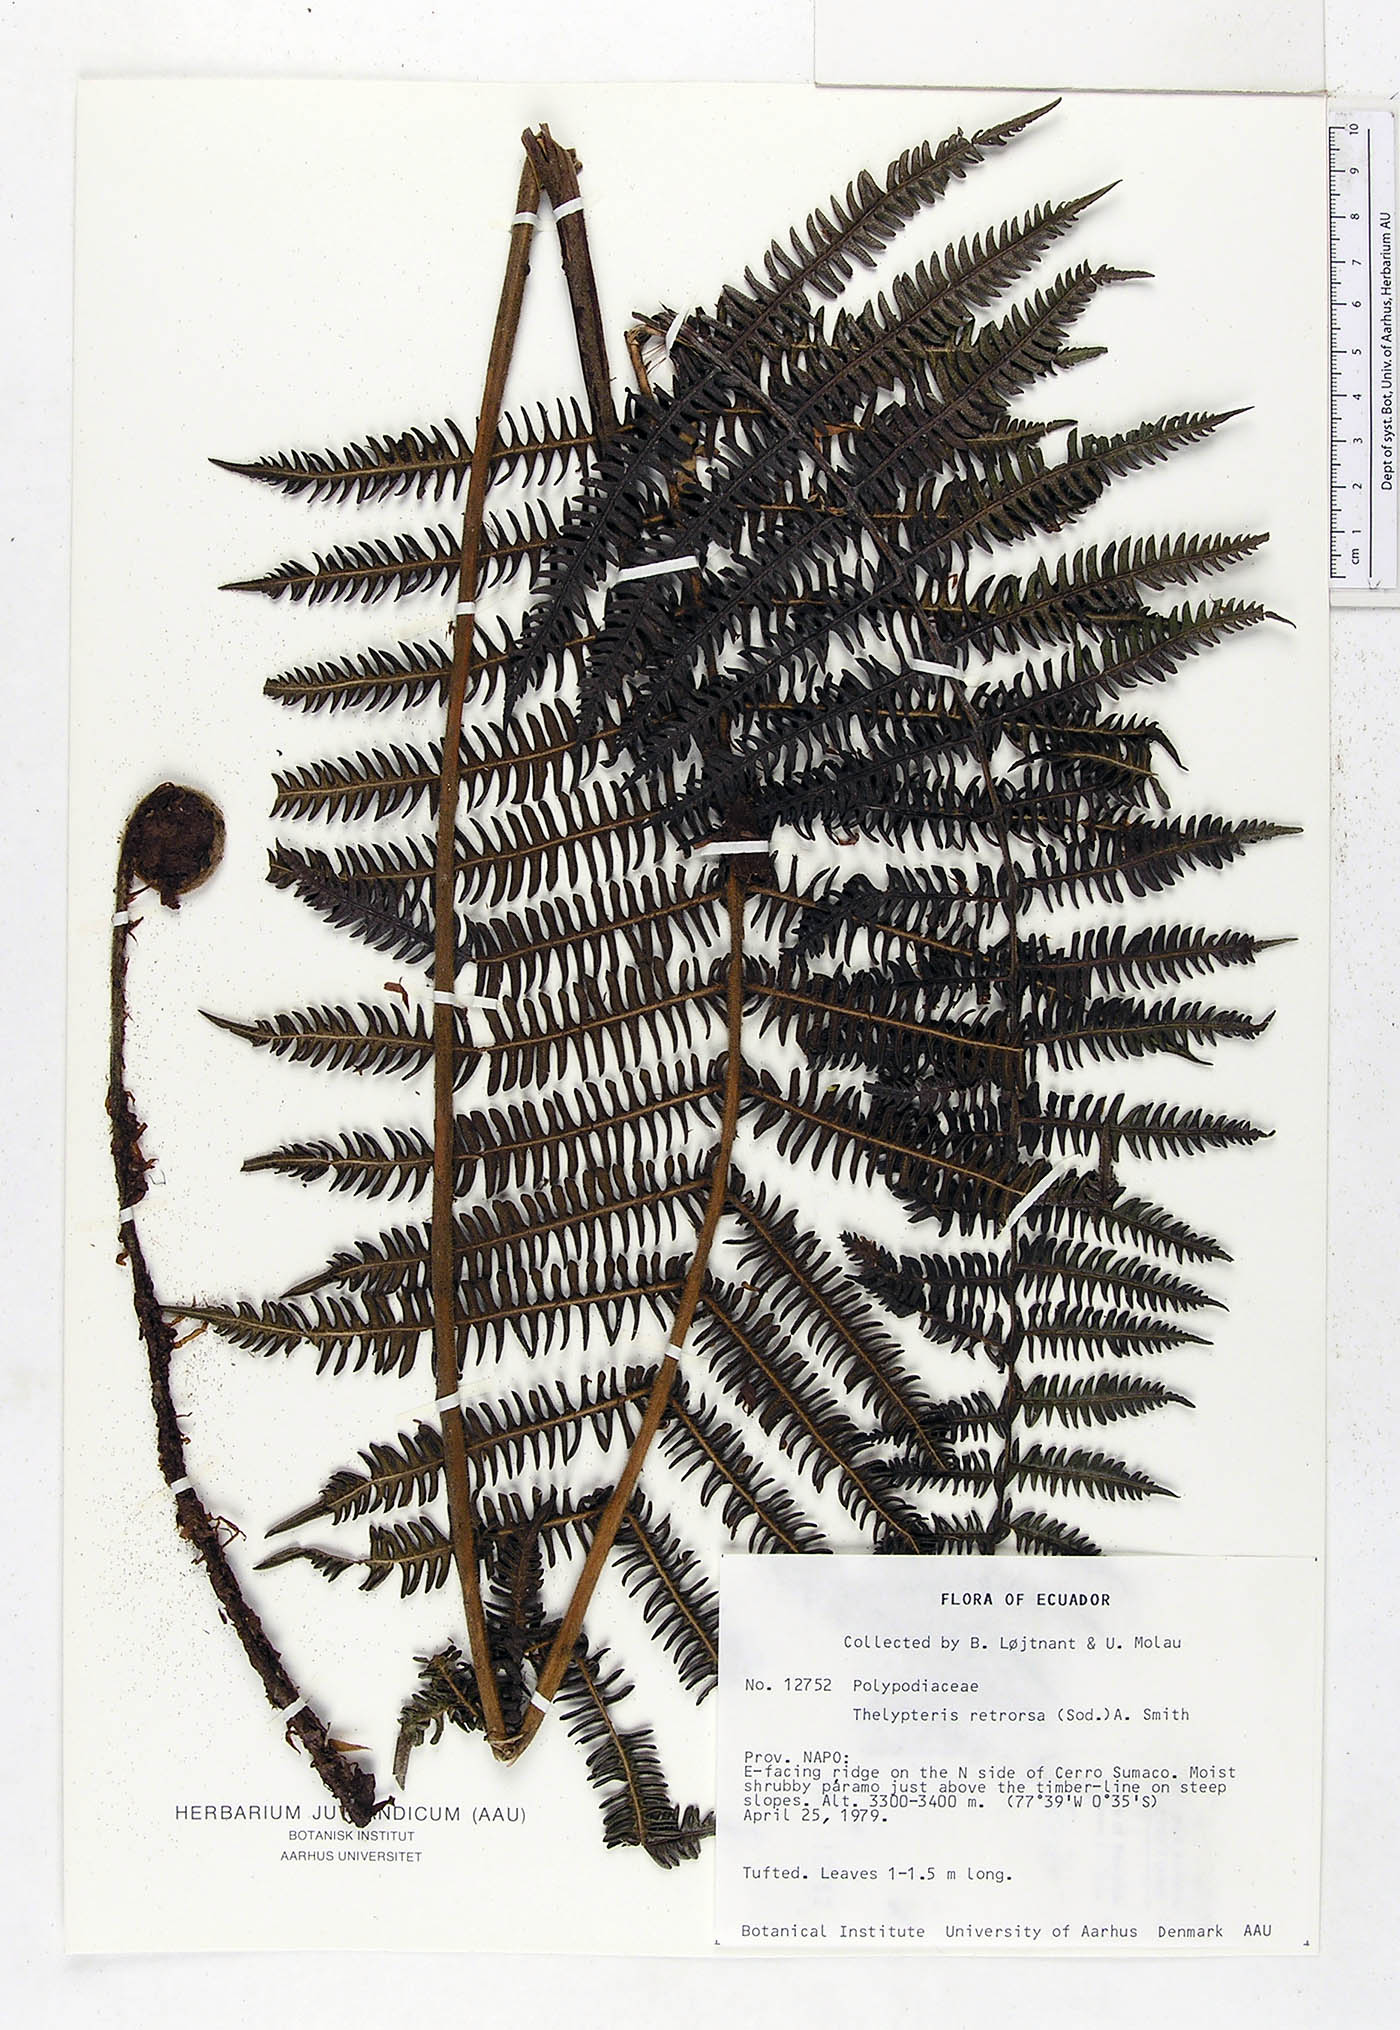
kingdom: Plantae
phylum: Tracheophyta
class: Polypodiopsida
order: Polypodiales
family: Thelypteridaceae
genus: Amauropelta
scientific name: Amauropelta pilosohispida
